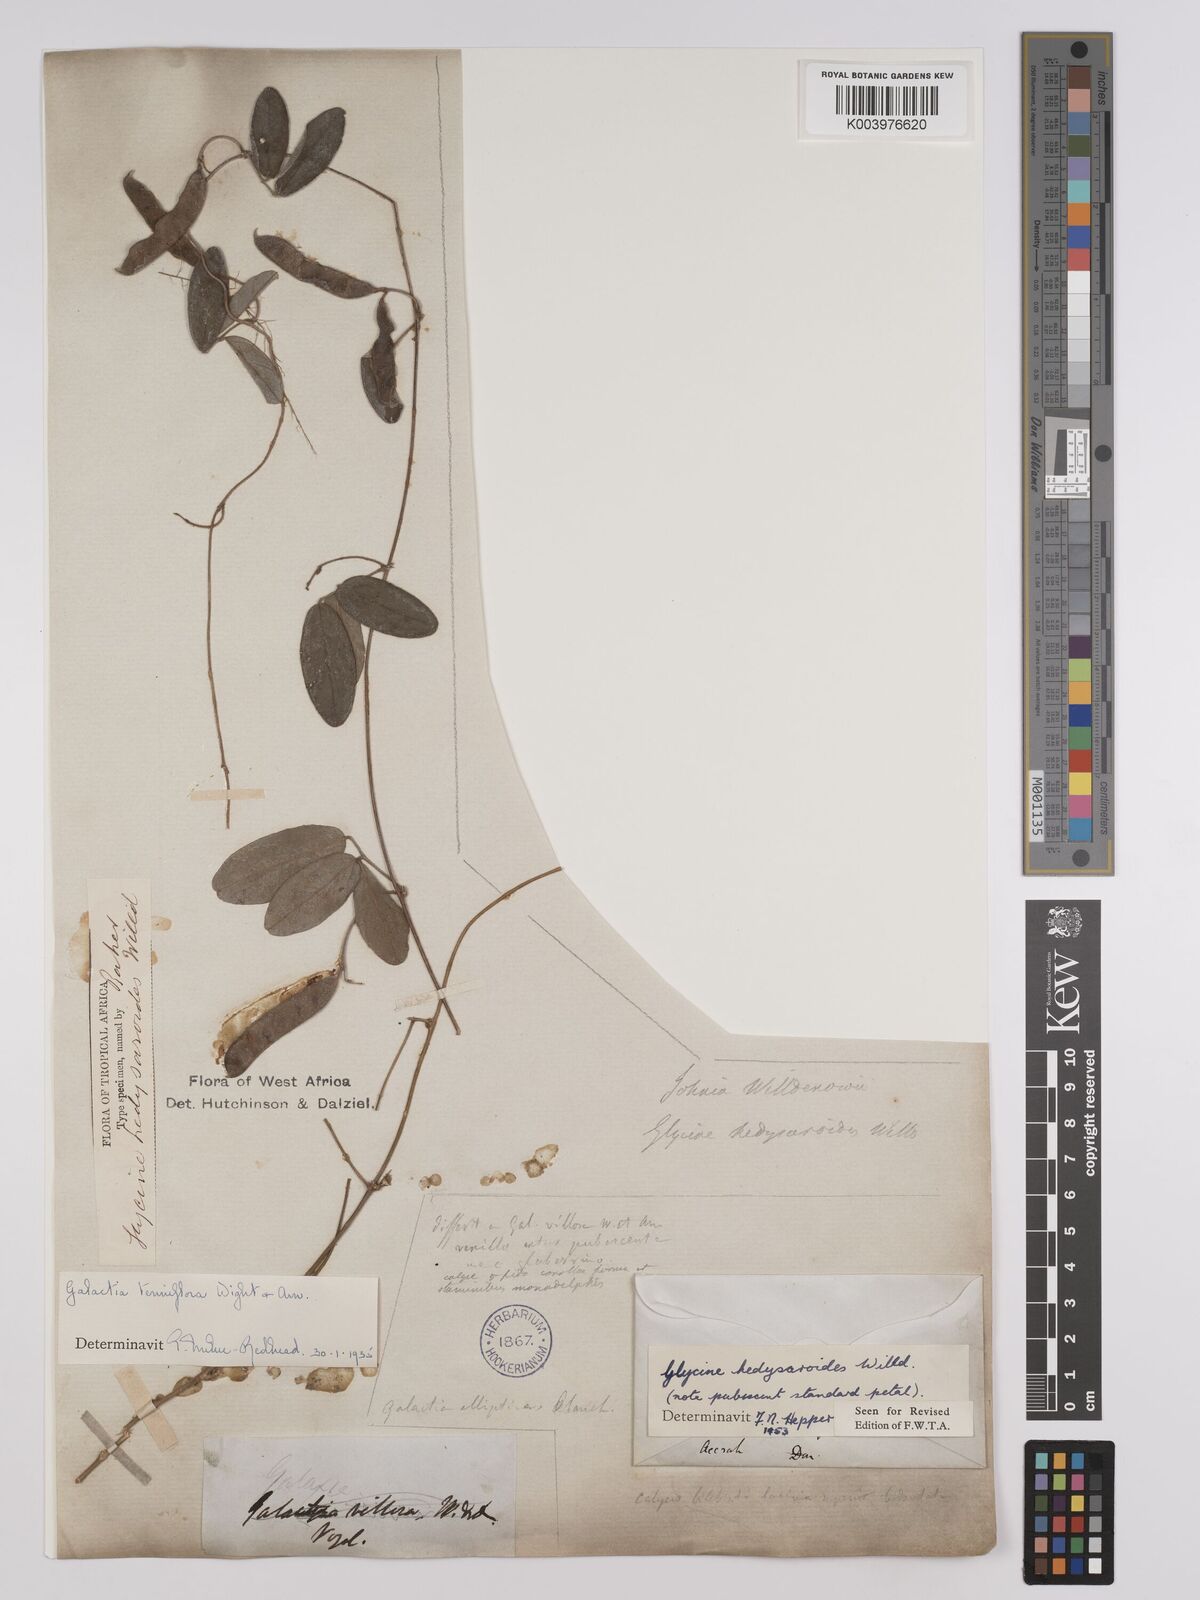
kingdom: Plantae
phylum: Tracheophyta
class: Magnoliopsida
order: Fabales
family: Fabaceae
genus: Galactia
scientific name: Galactia striata
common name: Florida hammock milkpea
